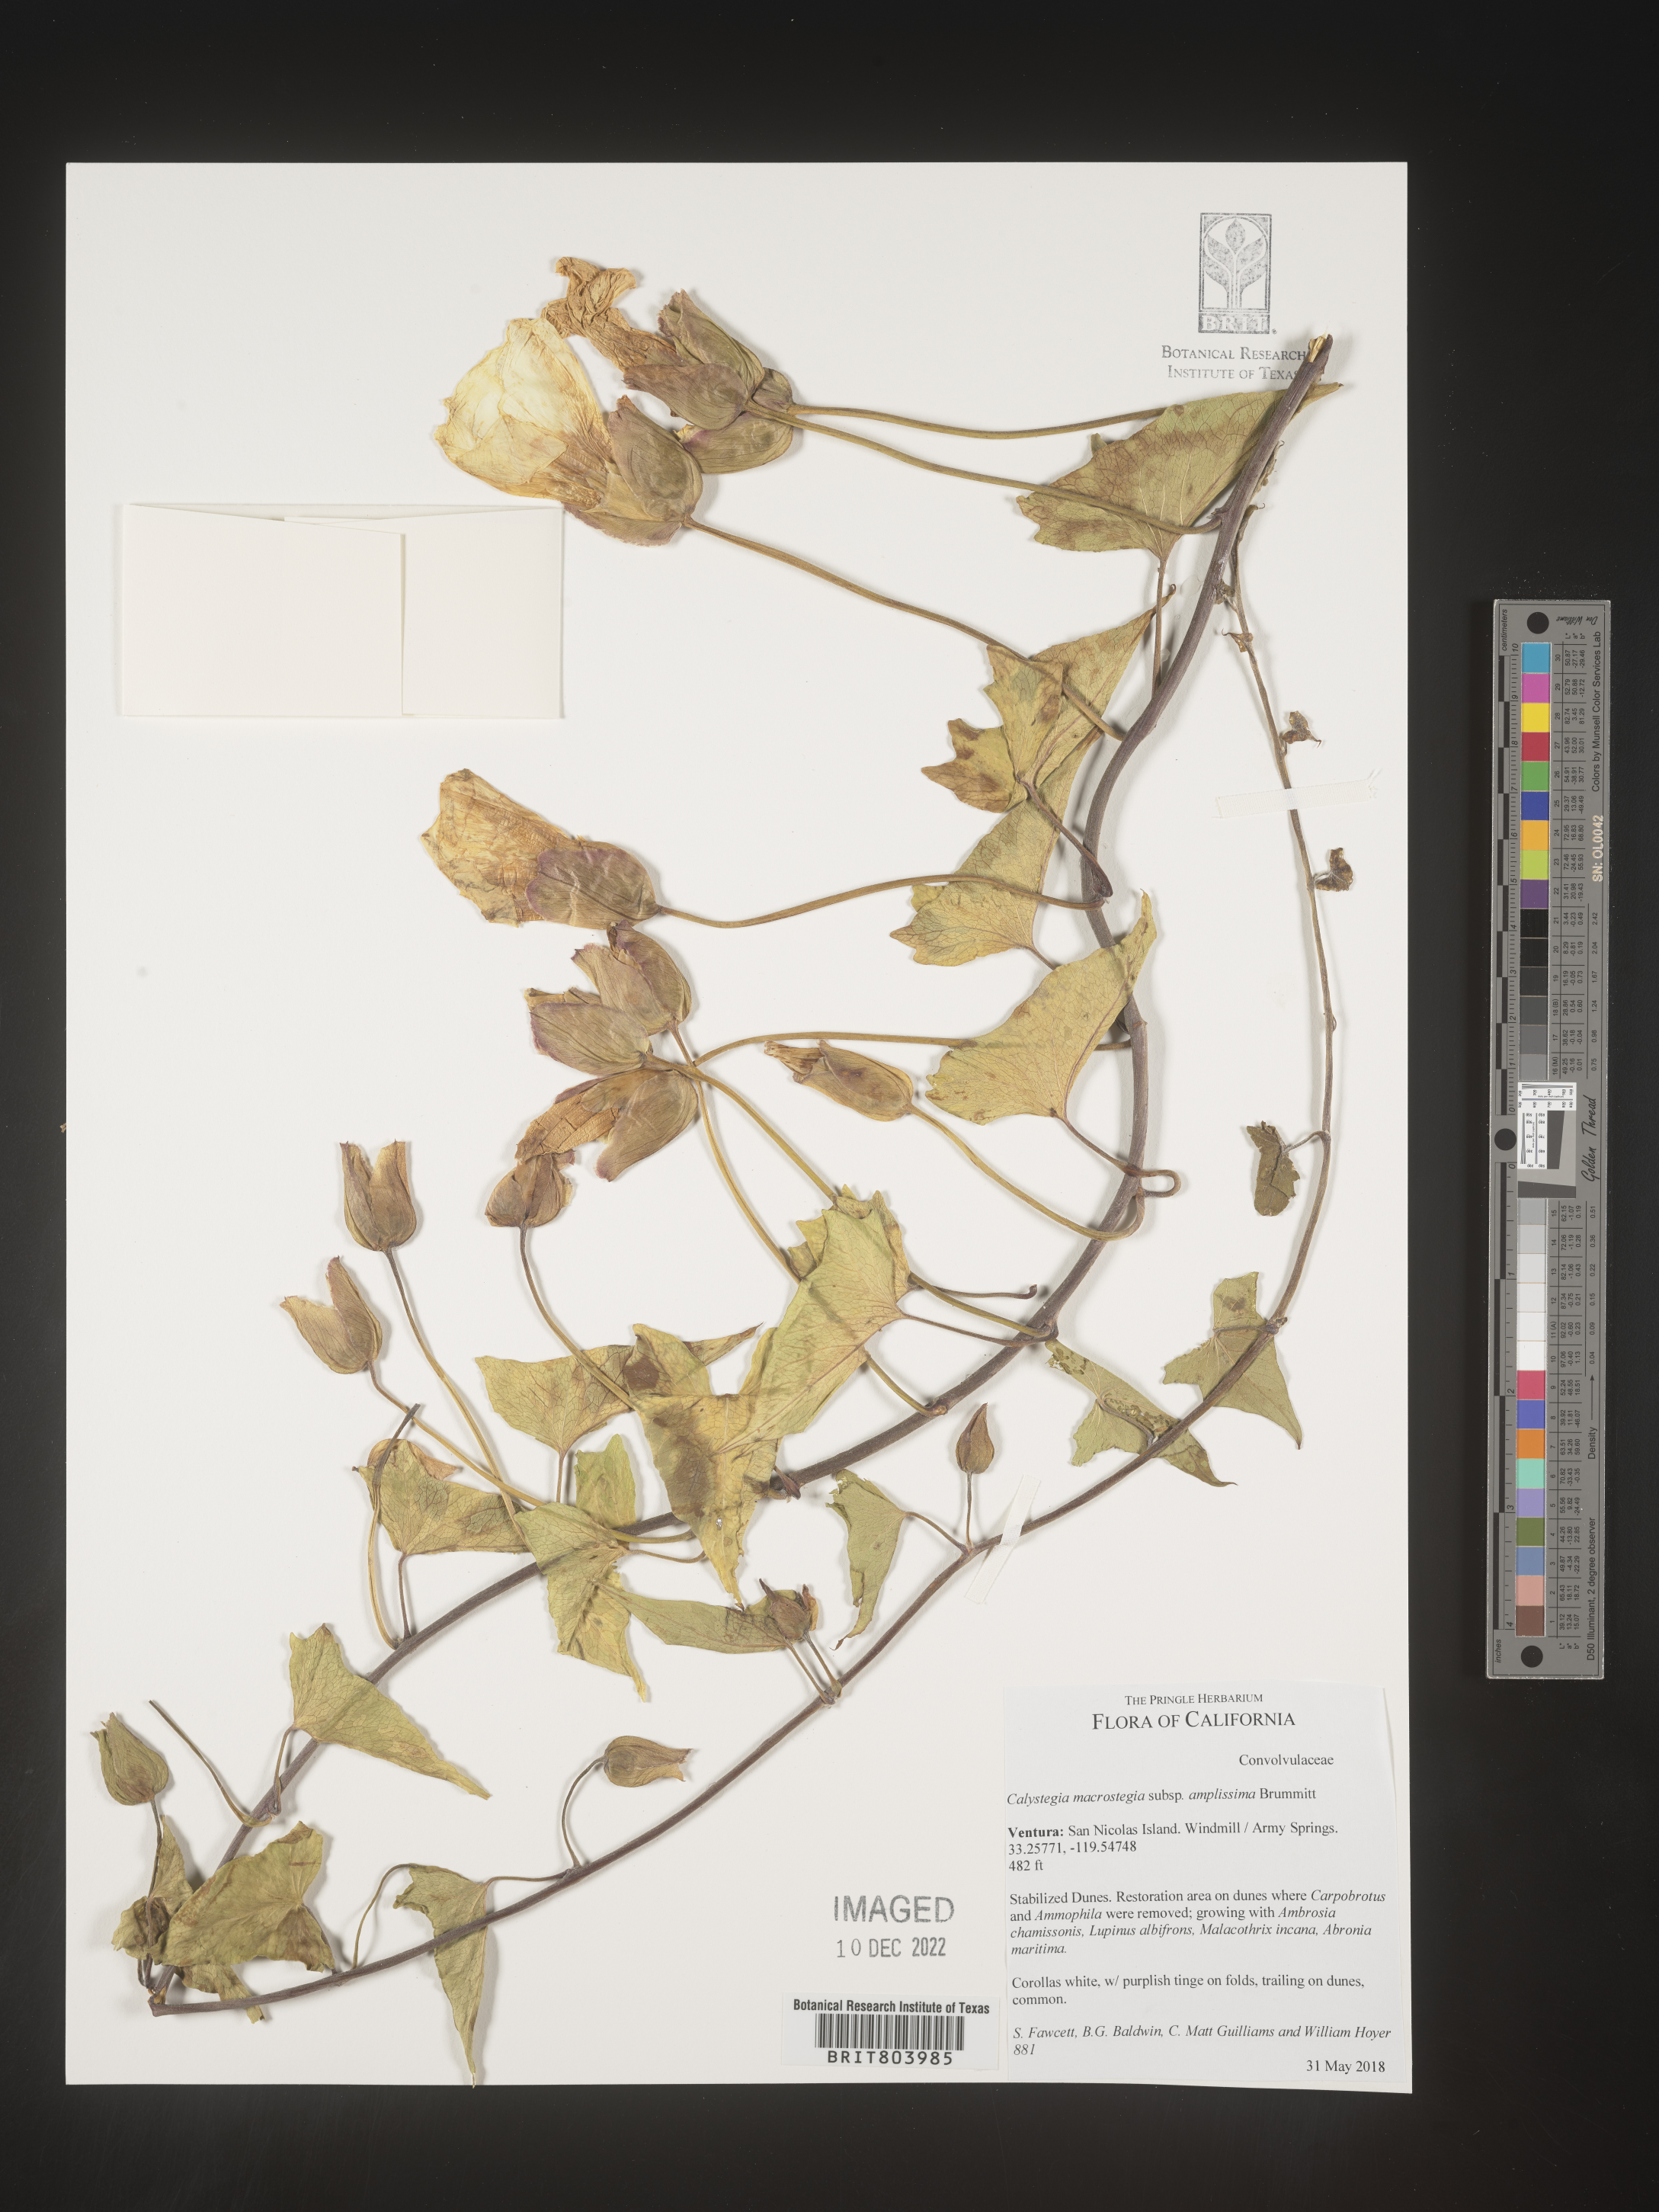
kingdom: Plantae
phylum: Tracheophyta
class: Magnoliopsida
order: Solanales
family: Convolvulaceae
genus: Calystegia
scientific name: Calystegia
